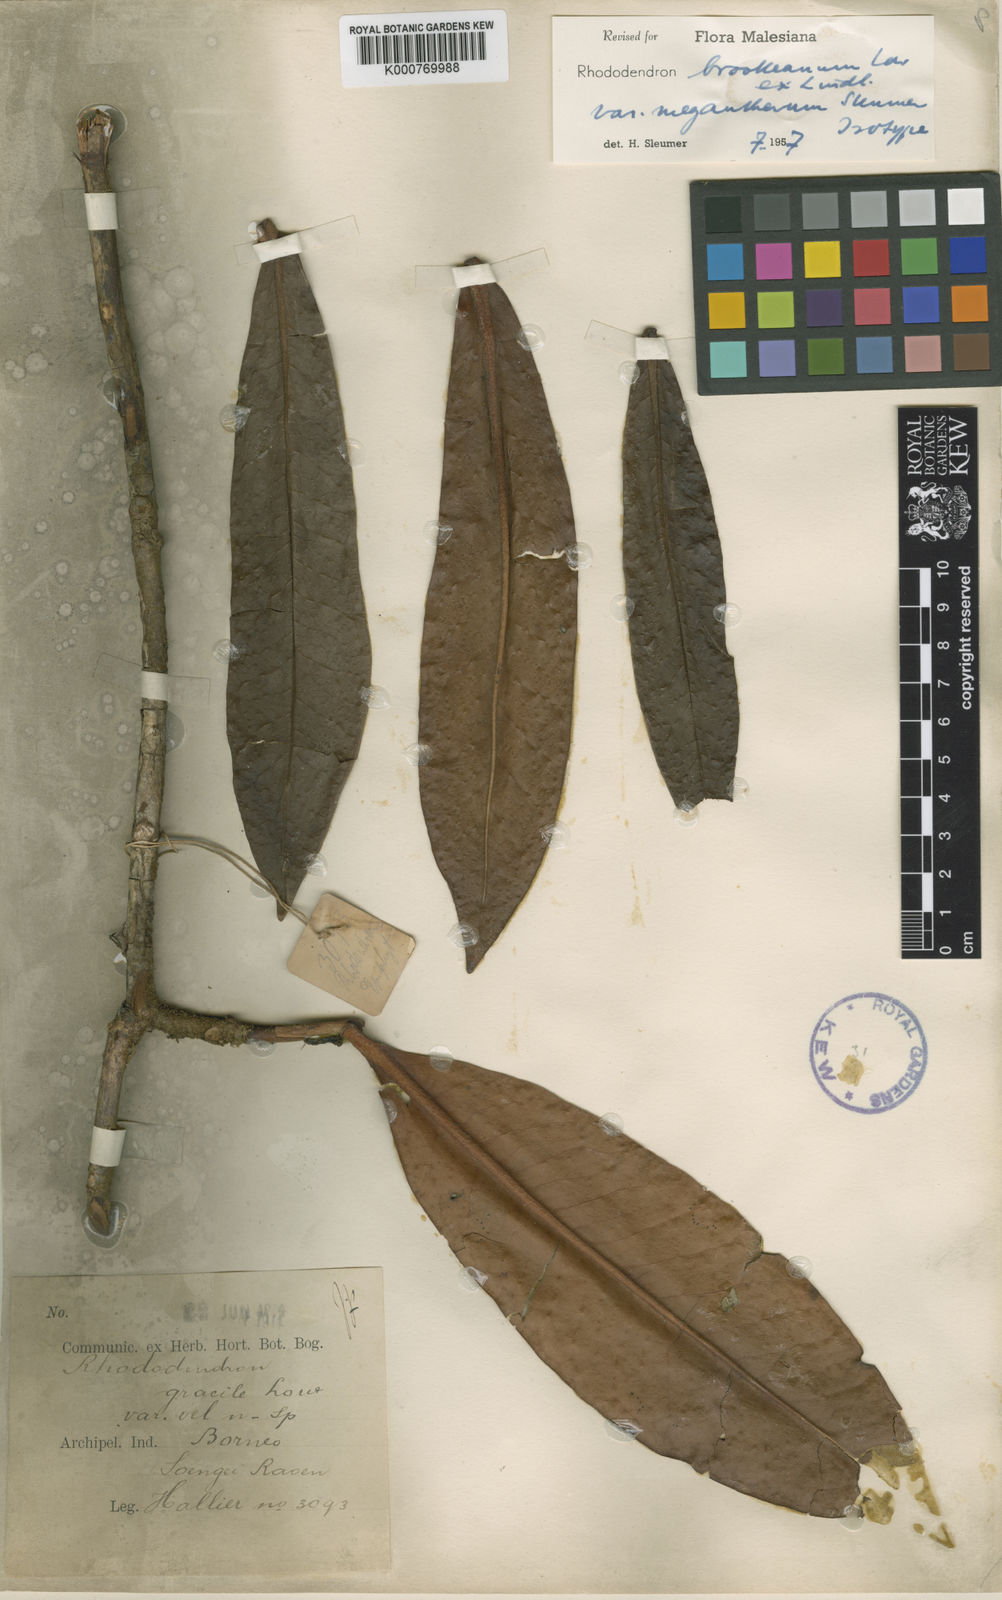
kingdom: Plantae
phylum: Tracheophyta
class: Magnoliopsida
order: Ericales
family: Ericaceae
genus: Rhododendron
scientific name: Rhododendron javanicum
